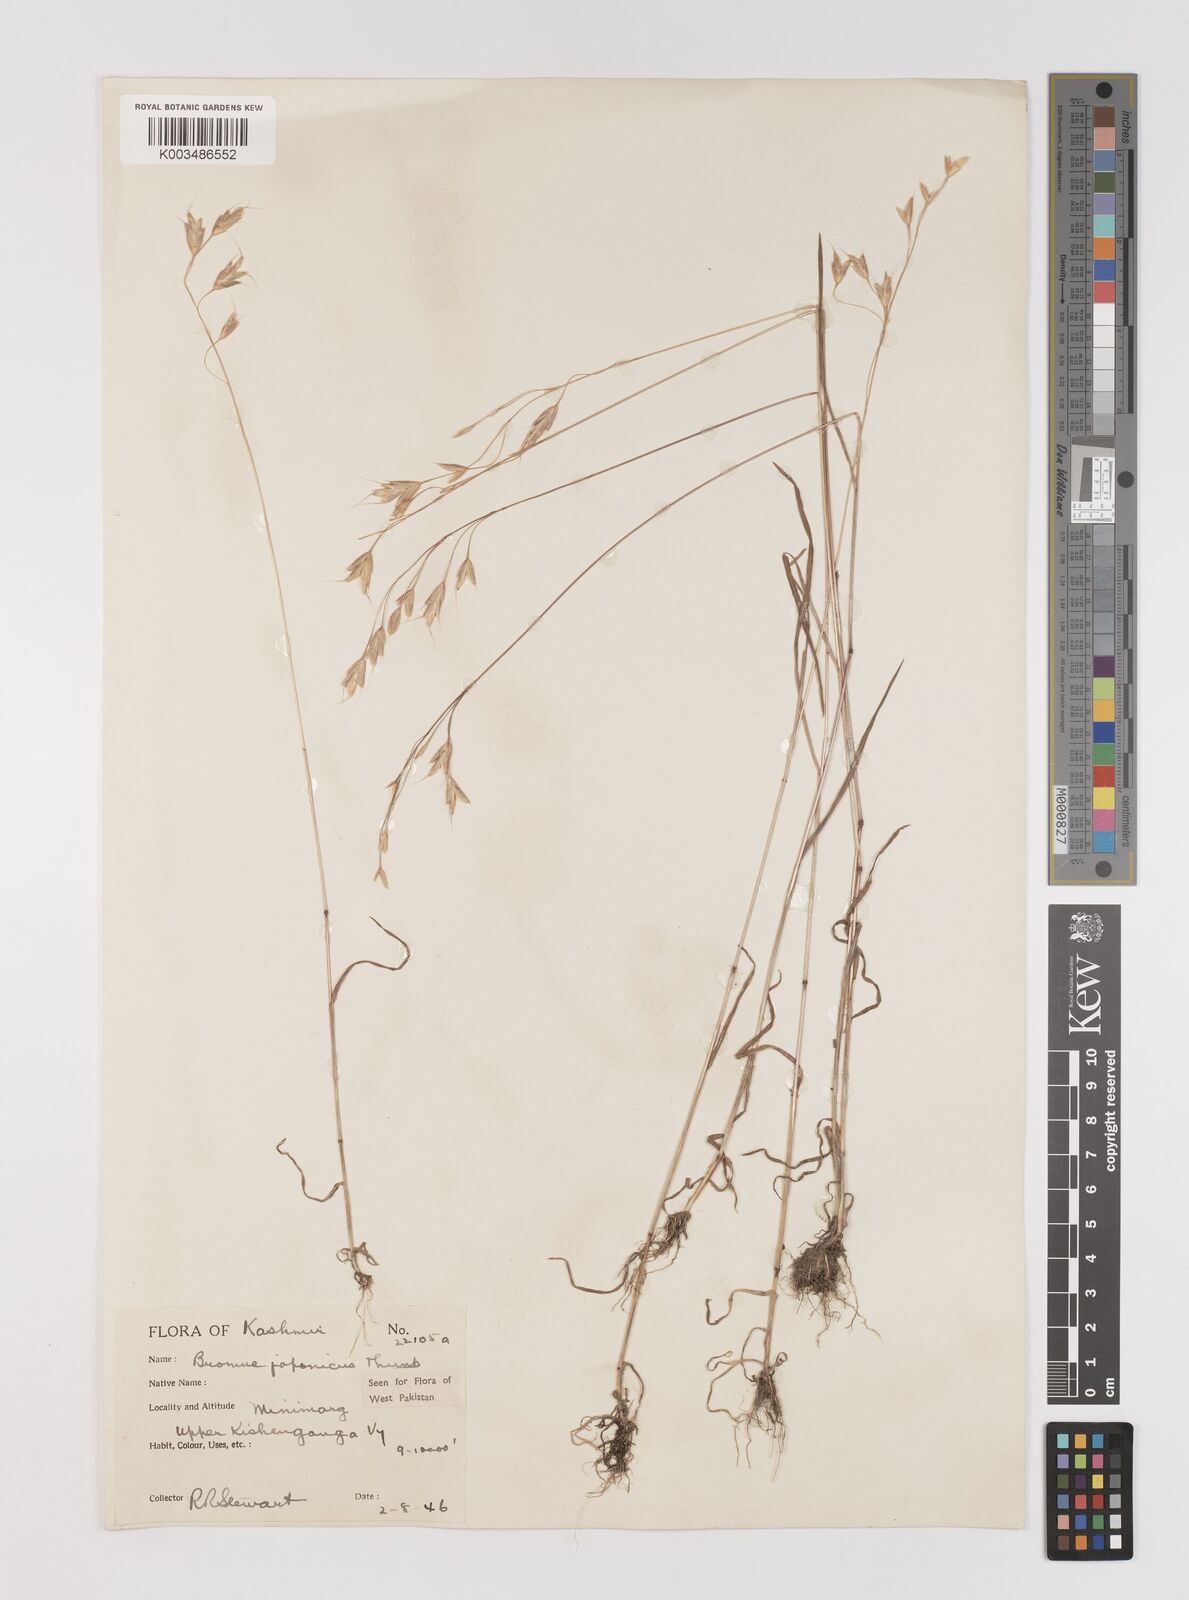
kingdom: Plantae
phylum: Tracheophyta
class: Liliopsida
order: Poales
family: Poaceae
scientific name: Poaceae
